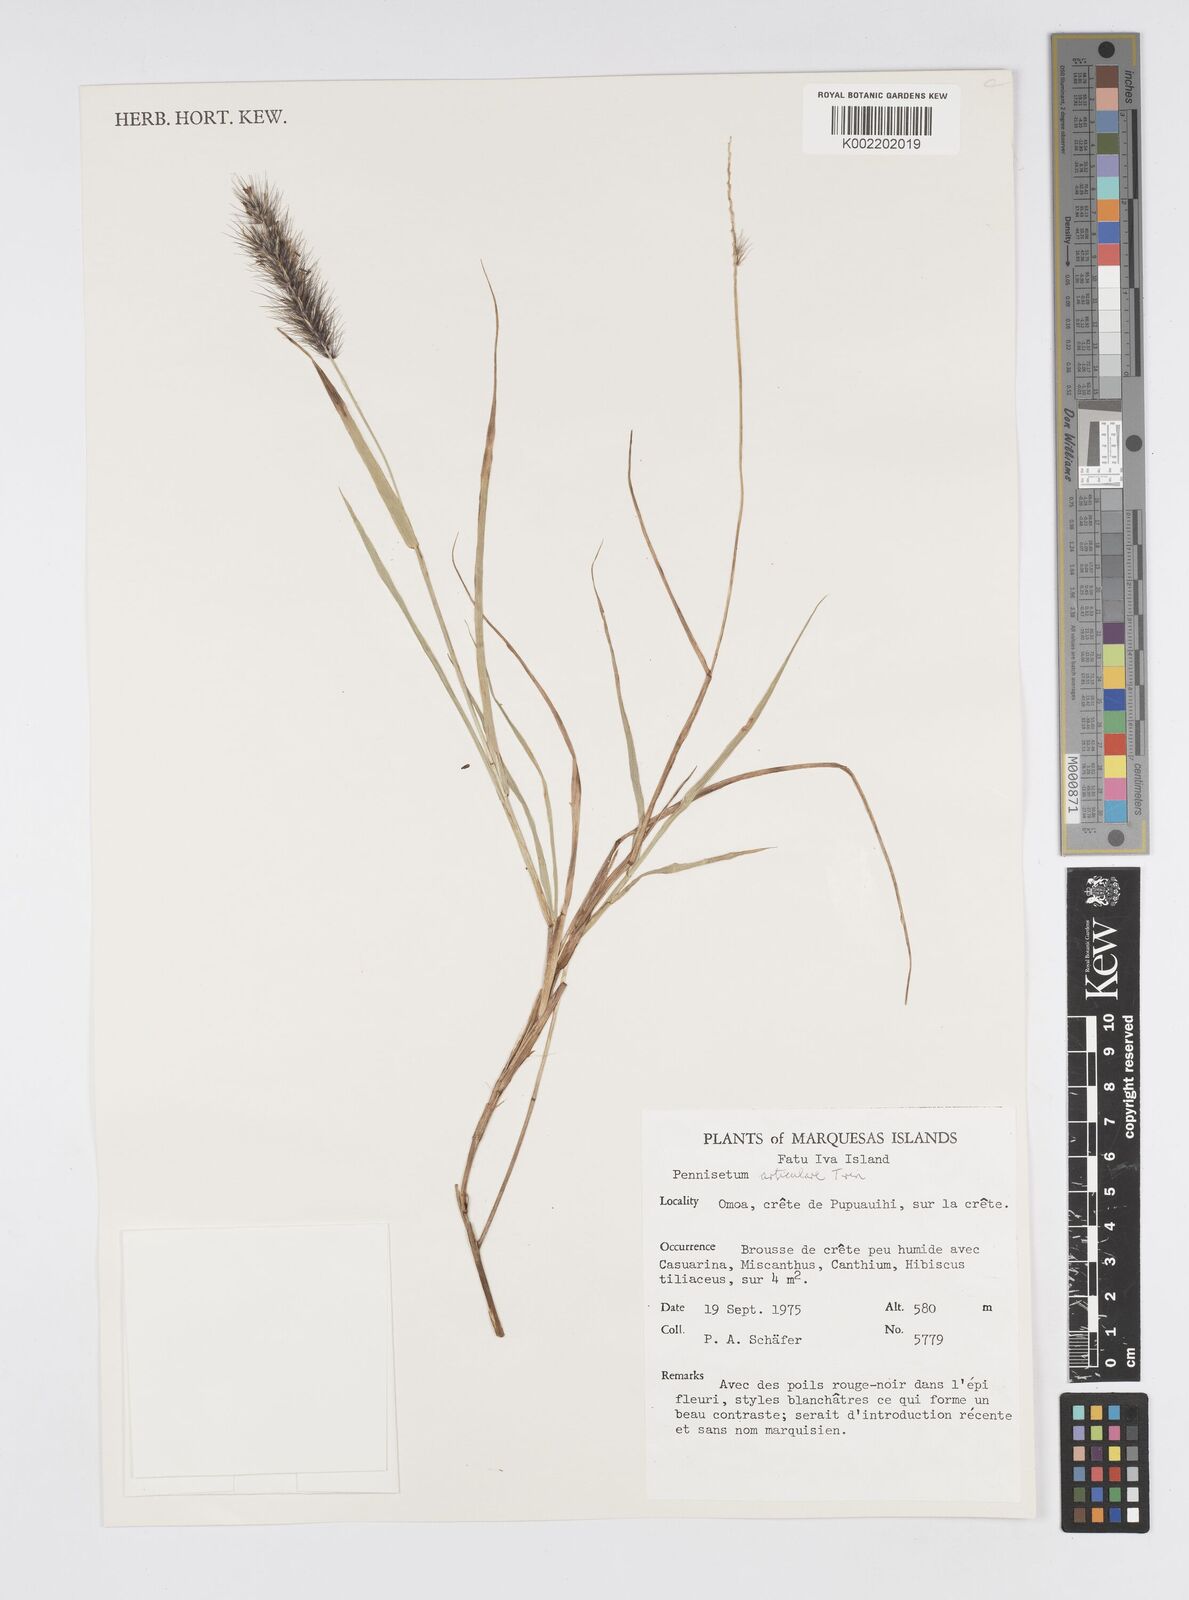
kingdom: Plantae
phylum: Tracheophyta
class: Liliopsida
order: Poales
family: Poaceae
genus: Cenchrus
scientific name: Cenchrus articularis
